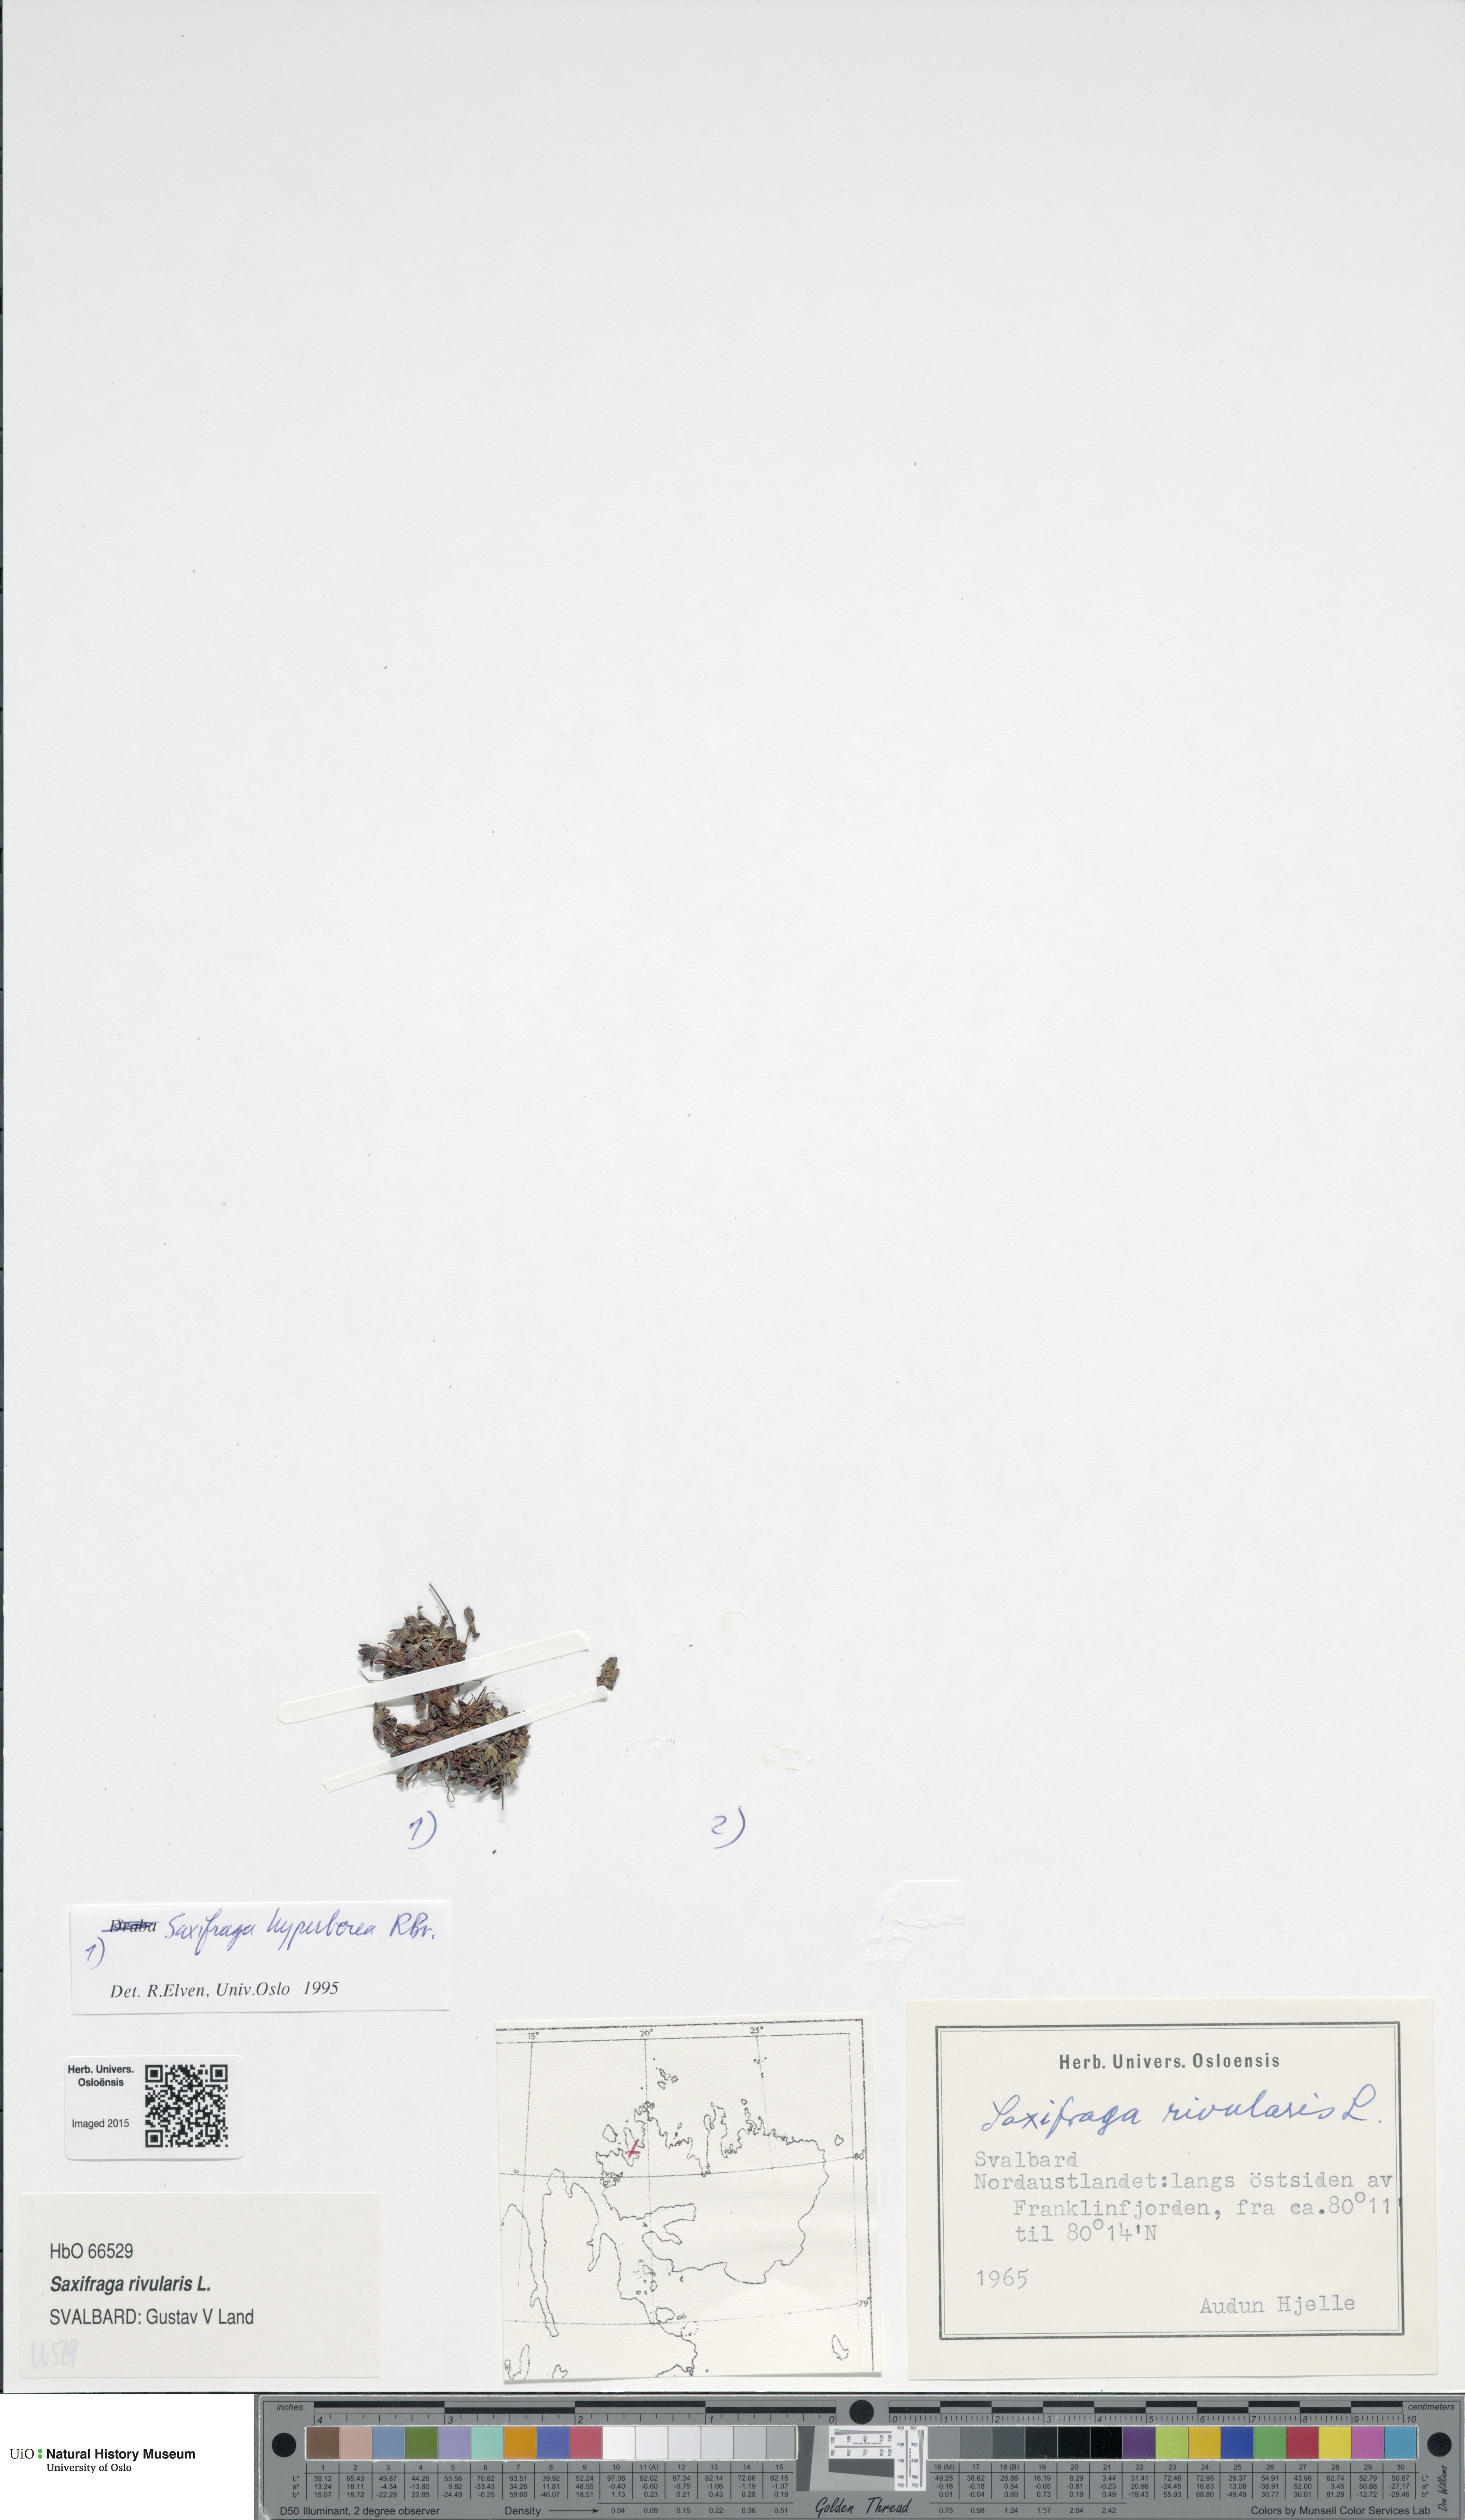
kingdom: Plantae
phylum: Tracheophyta
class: Magnoliopsida
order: Saxifragales
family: Saxifragaceae
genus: Saxifraga
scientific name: Saxifraga hyperborea
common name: Arctic saxifrage
